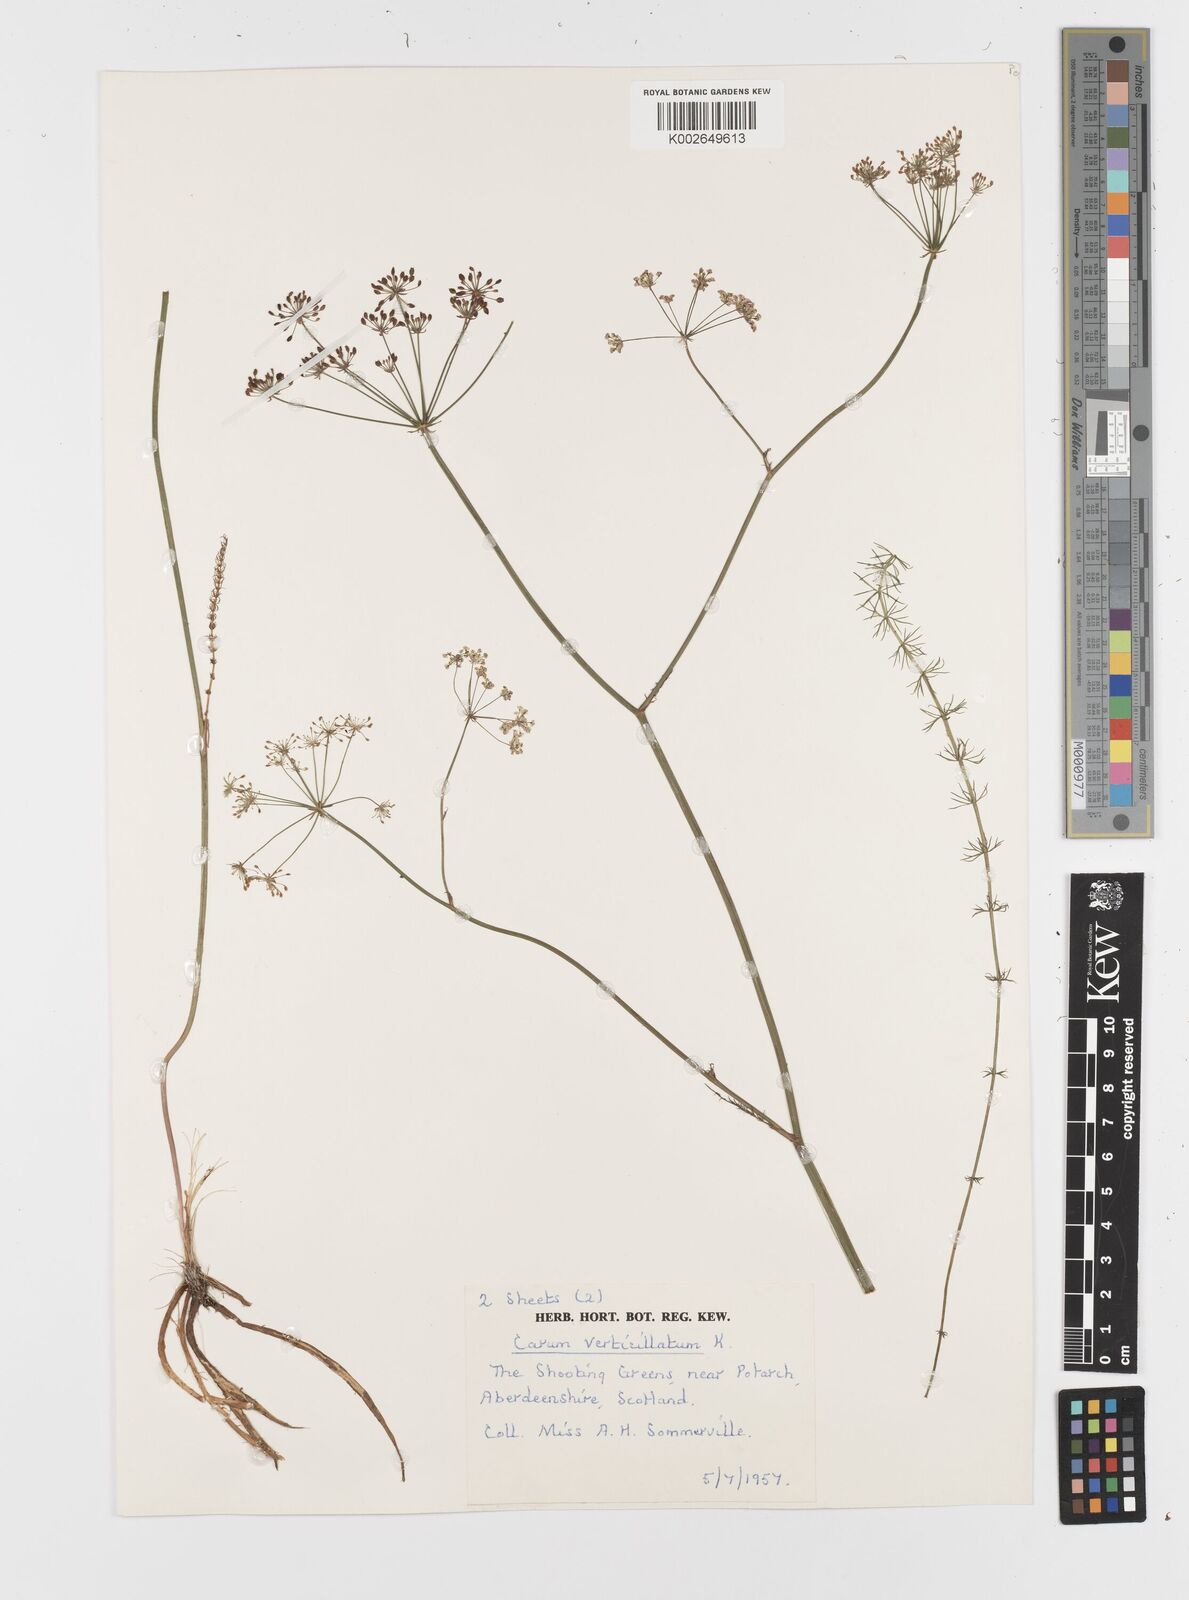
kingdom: Plantae
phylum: Tracheophyta
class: Magnoliopsida
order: Apiales
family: Apiaceae
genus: Trocdaris
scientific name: Trocdaris verticillatum
